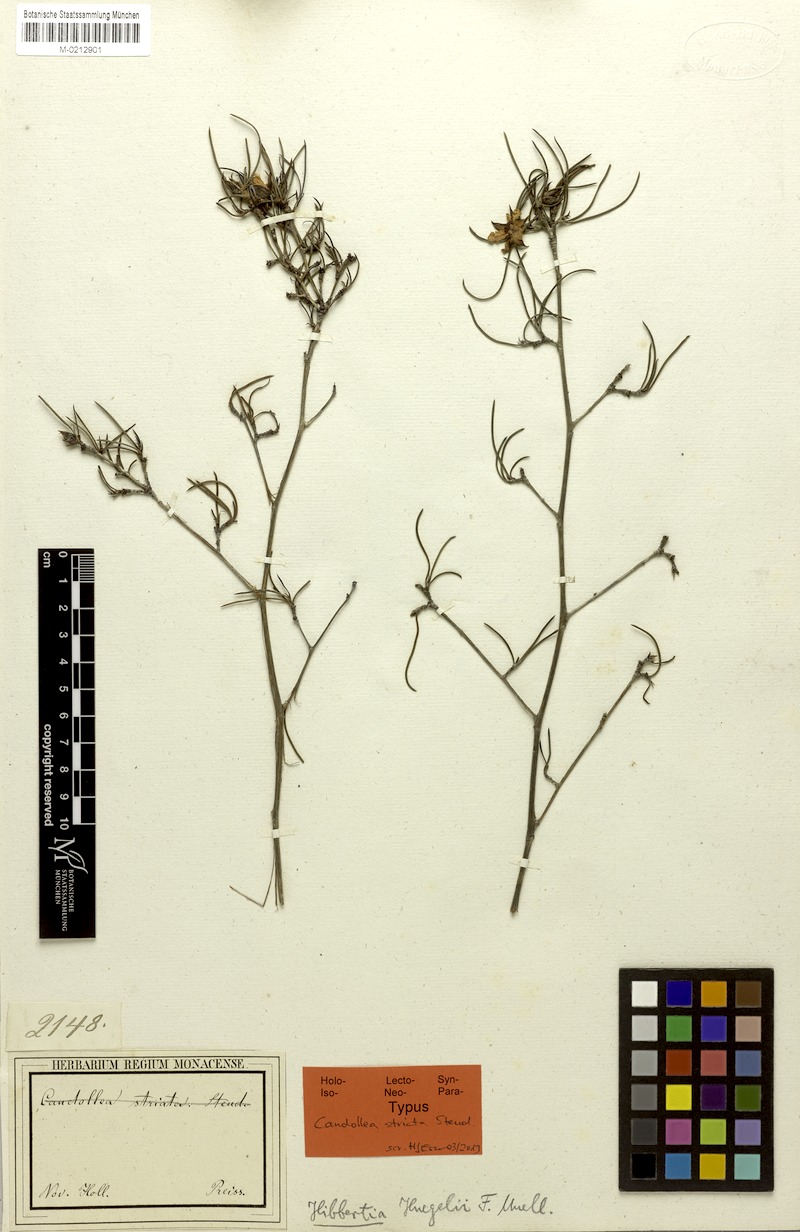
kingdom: Plantae
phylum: Tracheophyta
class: Magnoliopsida
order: Dilleniales
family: Dilleniaceae
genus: Hibbertia
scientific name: Hibbertia striata
